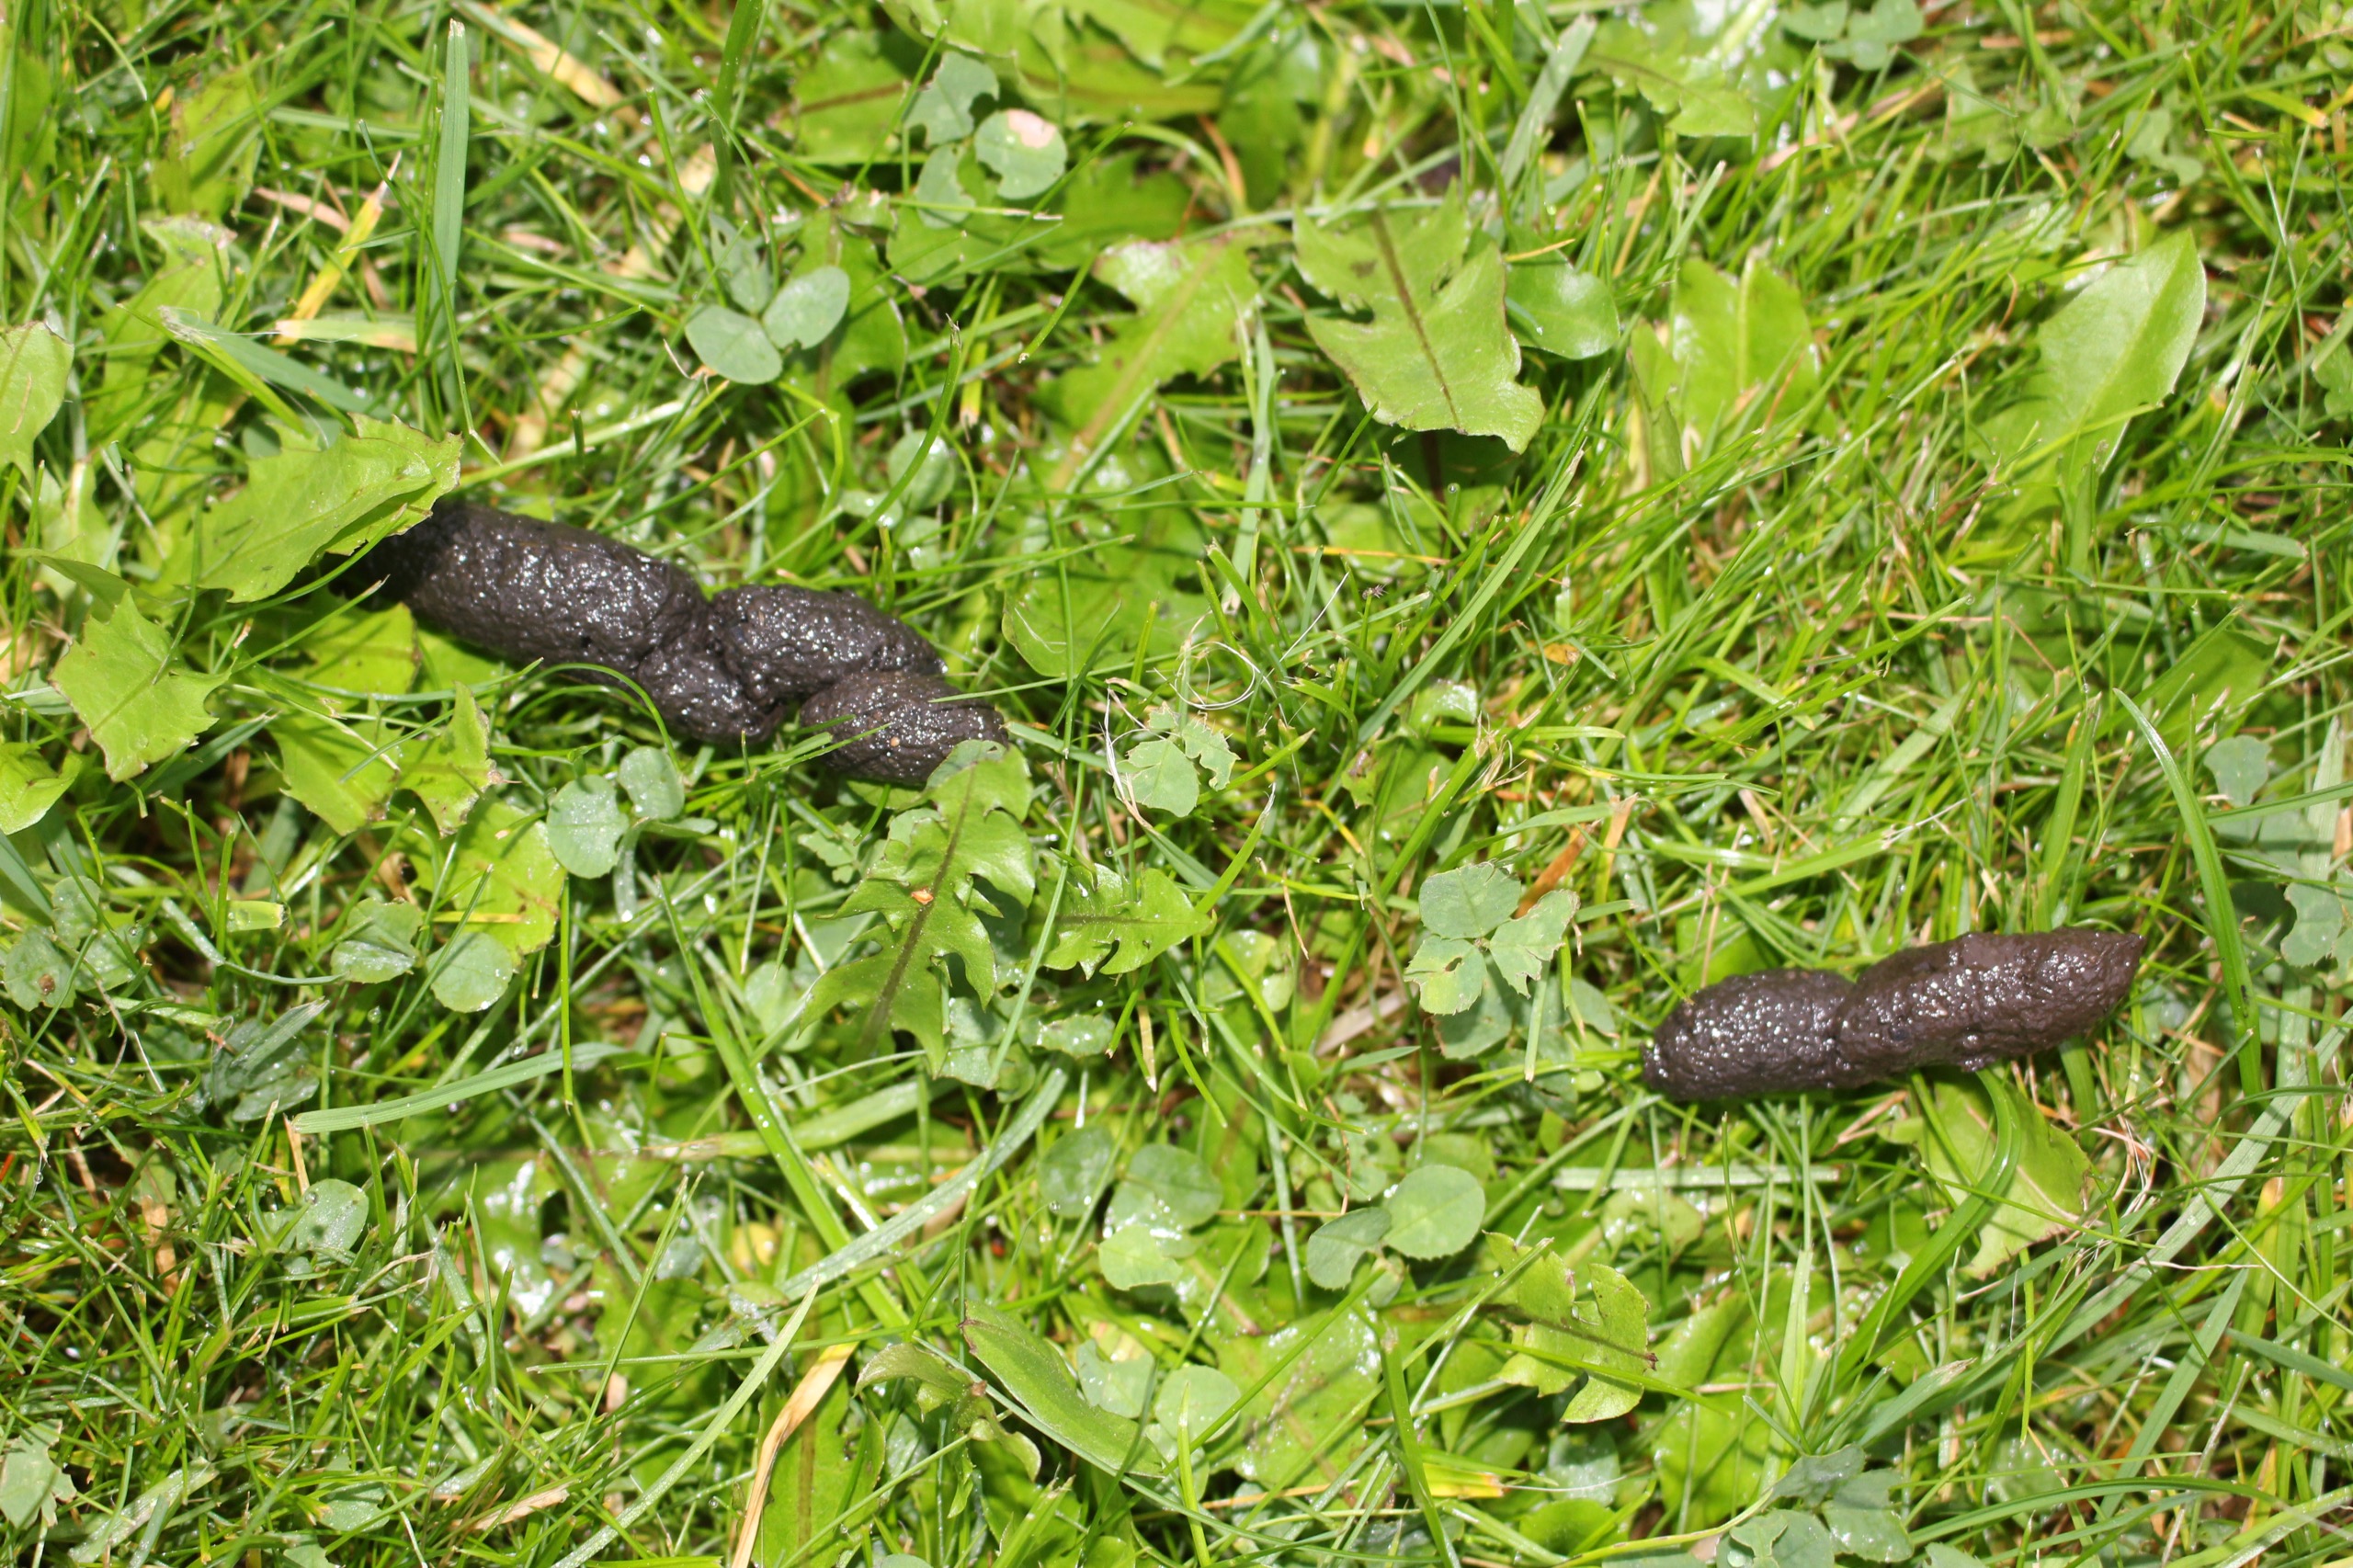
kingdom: Animalia
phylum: Chordata
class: Mammalia
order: Erinaceomorpha
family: Erinaceidae
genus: Erinaceus
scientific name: Erinaceus europaeus
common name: Pindsvin
